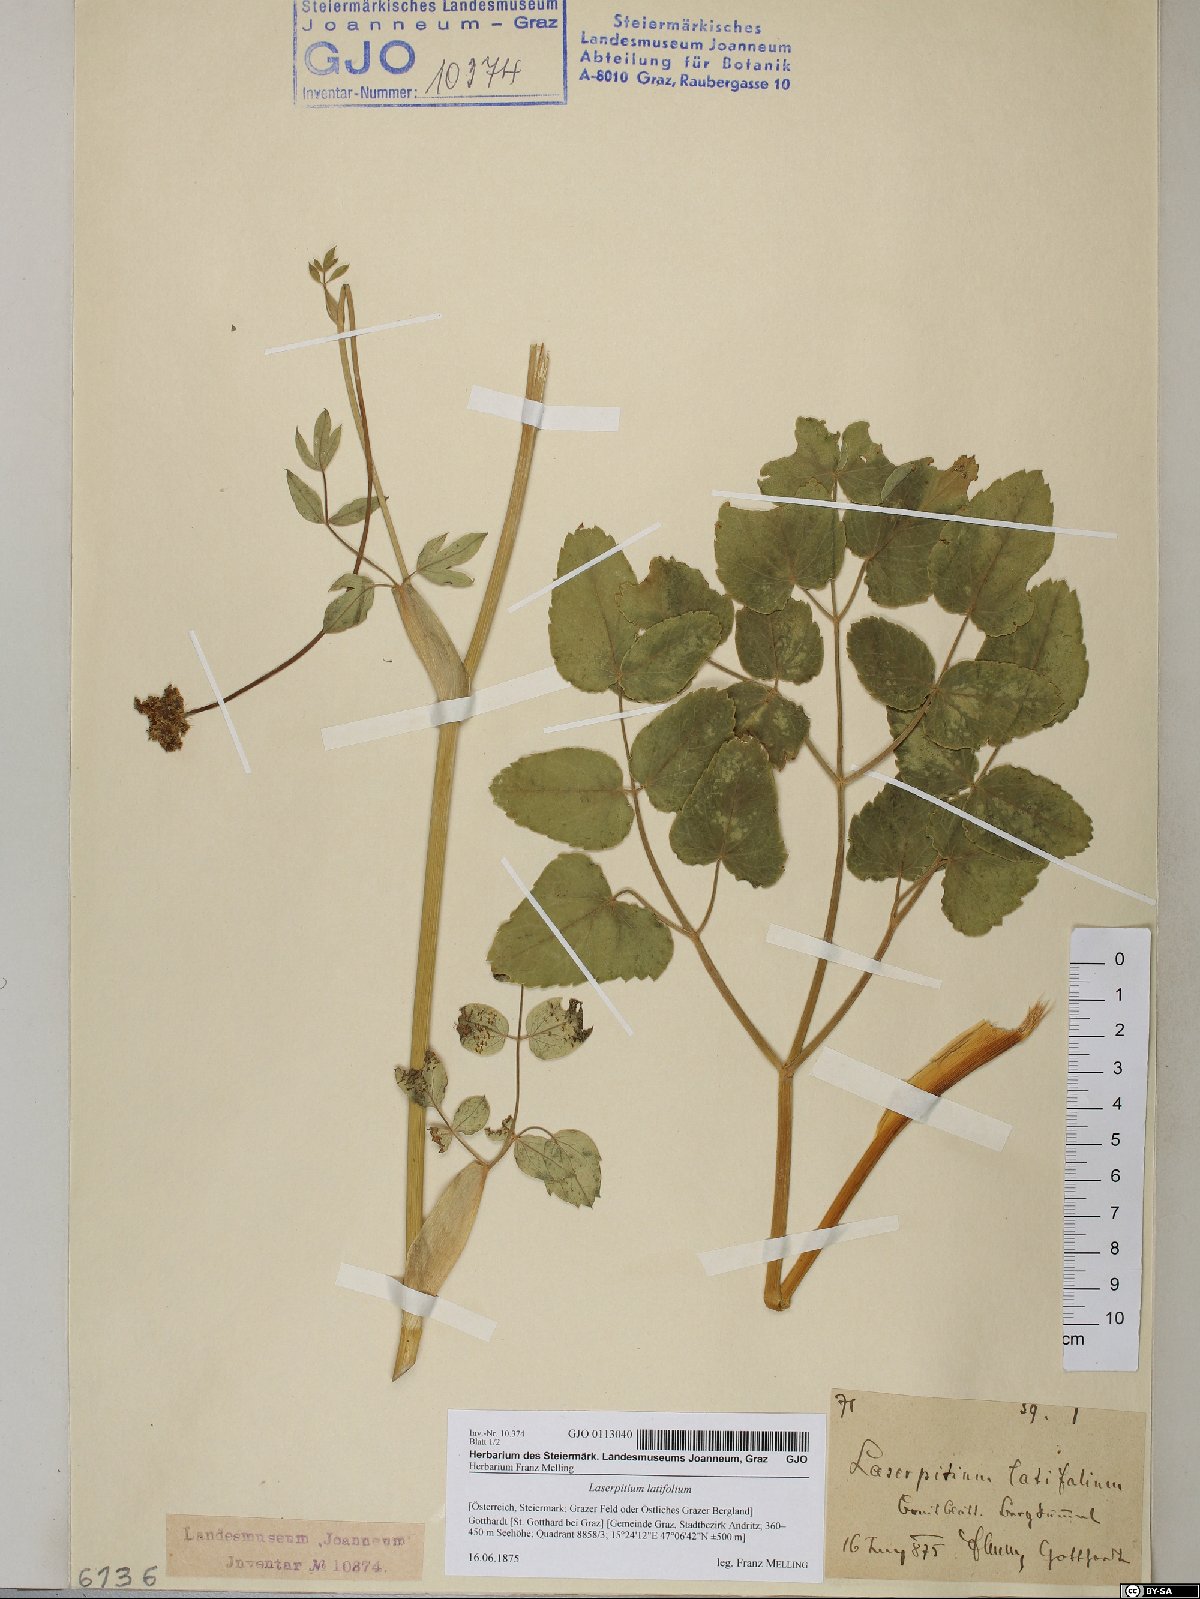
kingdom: Plantae
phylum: Tracheophyta
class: Magnoliopsida
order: Apiales
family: Apiaceae
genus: Laserpitium
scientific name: Laserpitium latifolium
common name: Broadleaf sermountain
